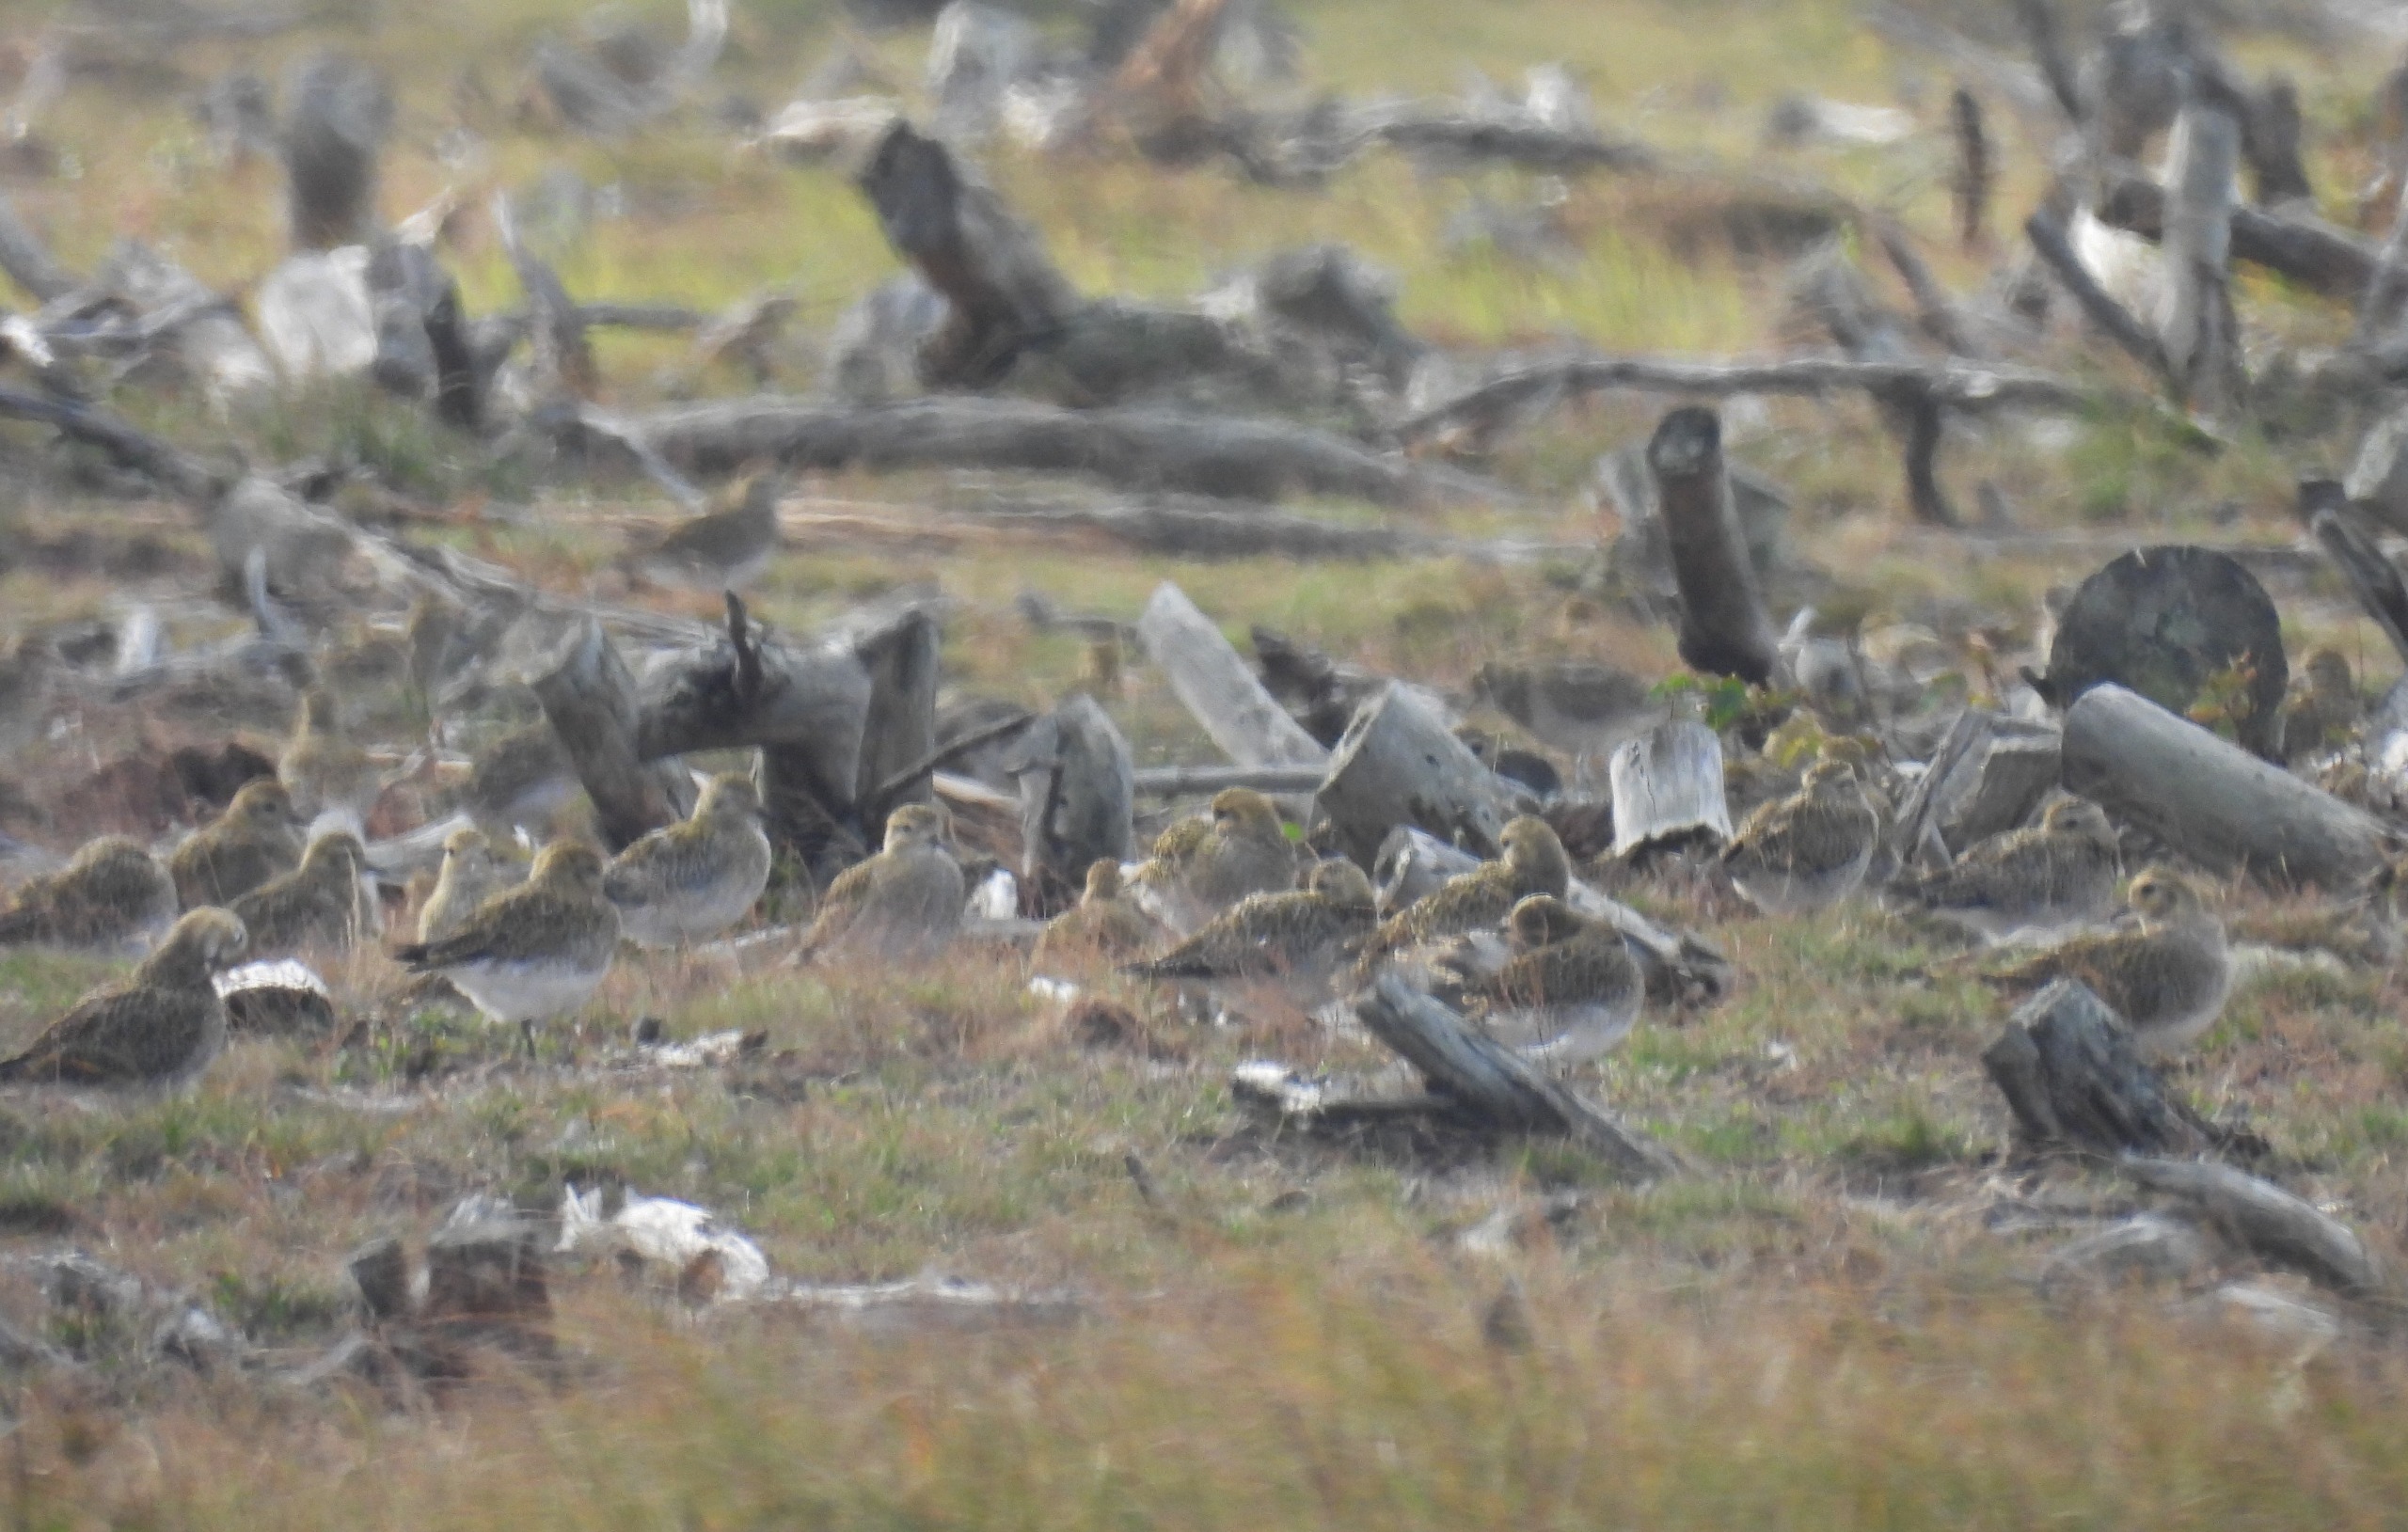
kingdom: Animalia
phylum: Chordata
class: Aves
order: Charadriiformes
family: Charadriidae
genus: Pluvialis
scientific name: Pluvialis apricaria
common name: Hjejle
